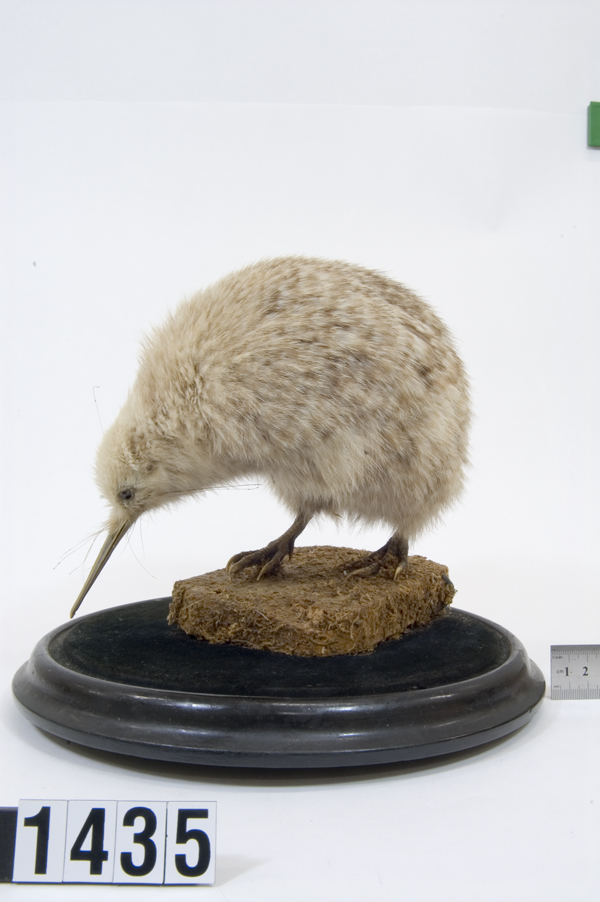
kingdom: Animalia
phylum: Chordata
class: Aves
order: Apterygiformes
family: Apterygidae
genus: Apteryx
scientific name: Apteryx owenii
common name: Little spotted kiwi
